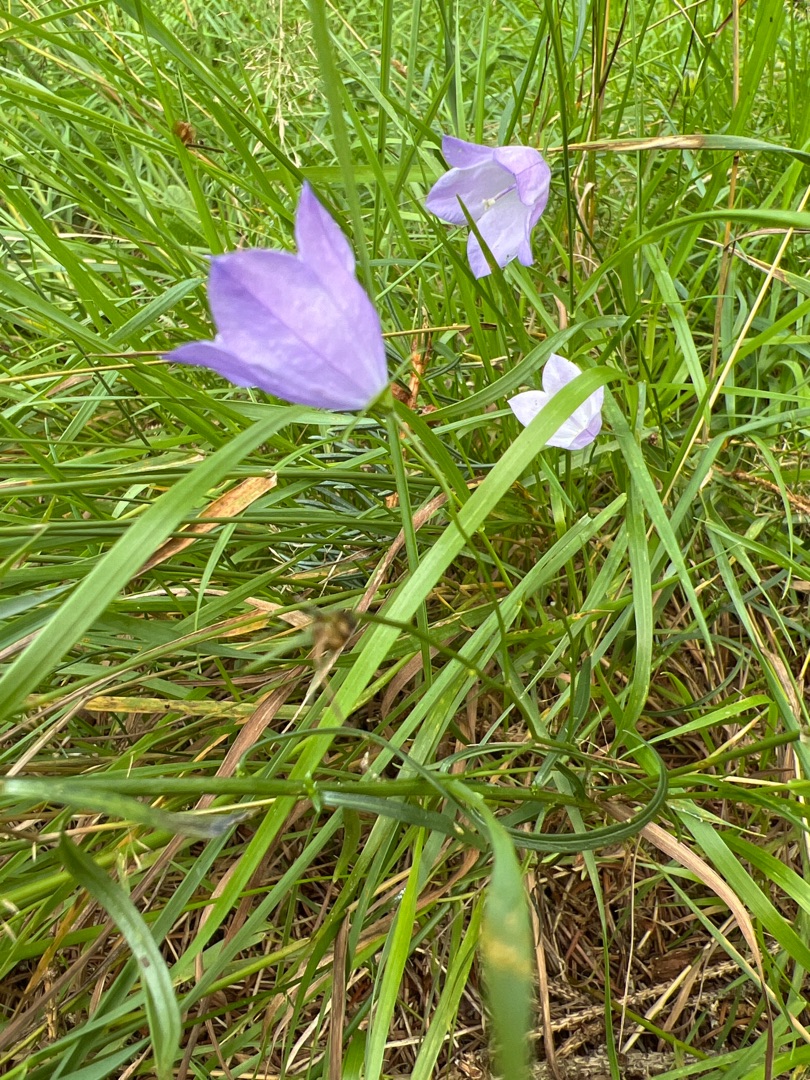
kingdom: Plantae
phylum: Tracheophyta
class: Magnoliopsida
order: Asterales
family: Campanulaceae
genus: Campanula
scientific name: Campanula rotundifolia
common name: Liden klokke
